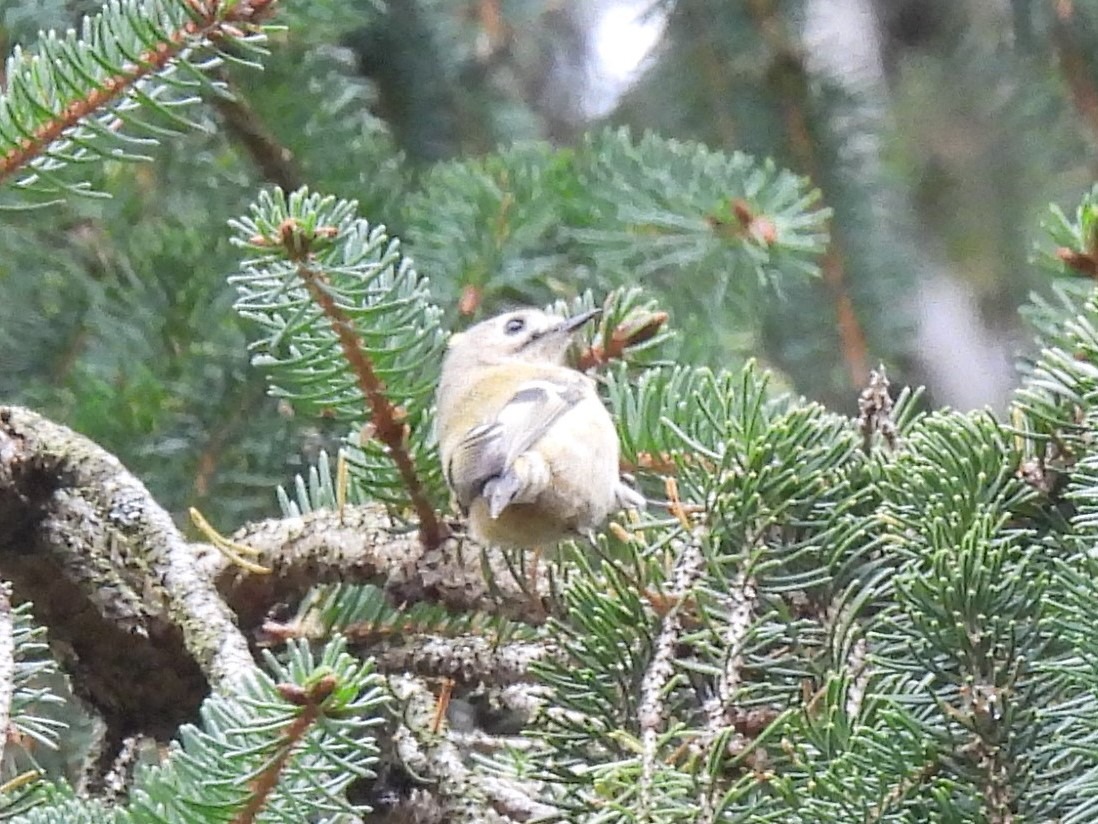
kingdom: Animalia
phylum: Chordata
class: Aves
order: Passeriformes
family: Regulidae
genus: Regulus
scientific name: Regulus regulus
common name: Fuglekonge
